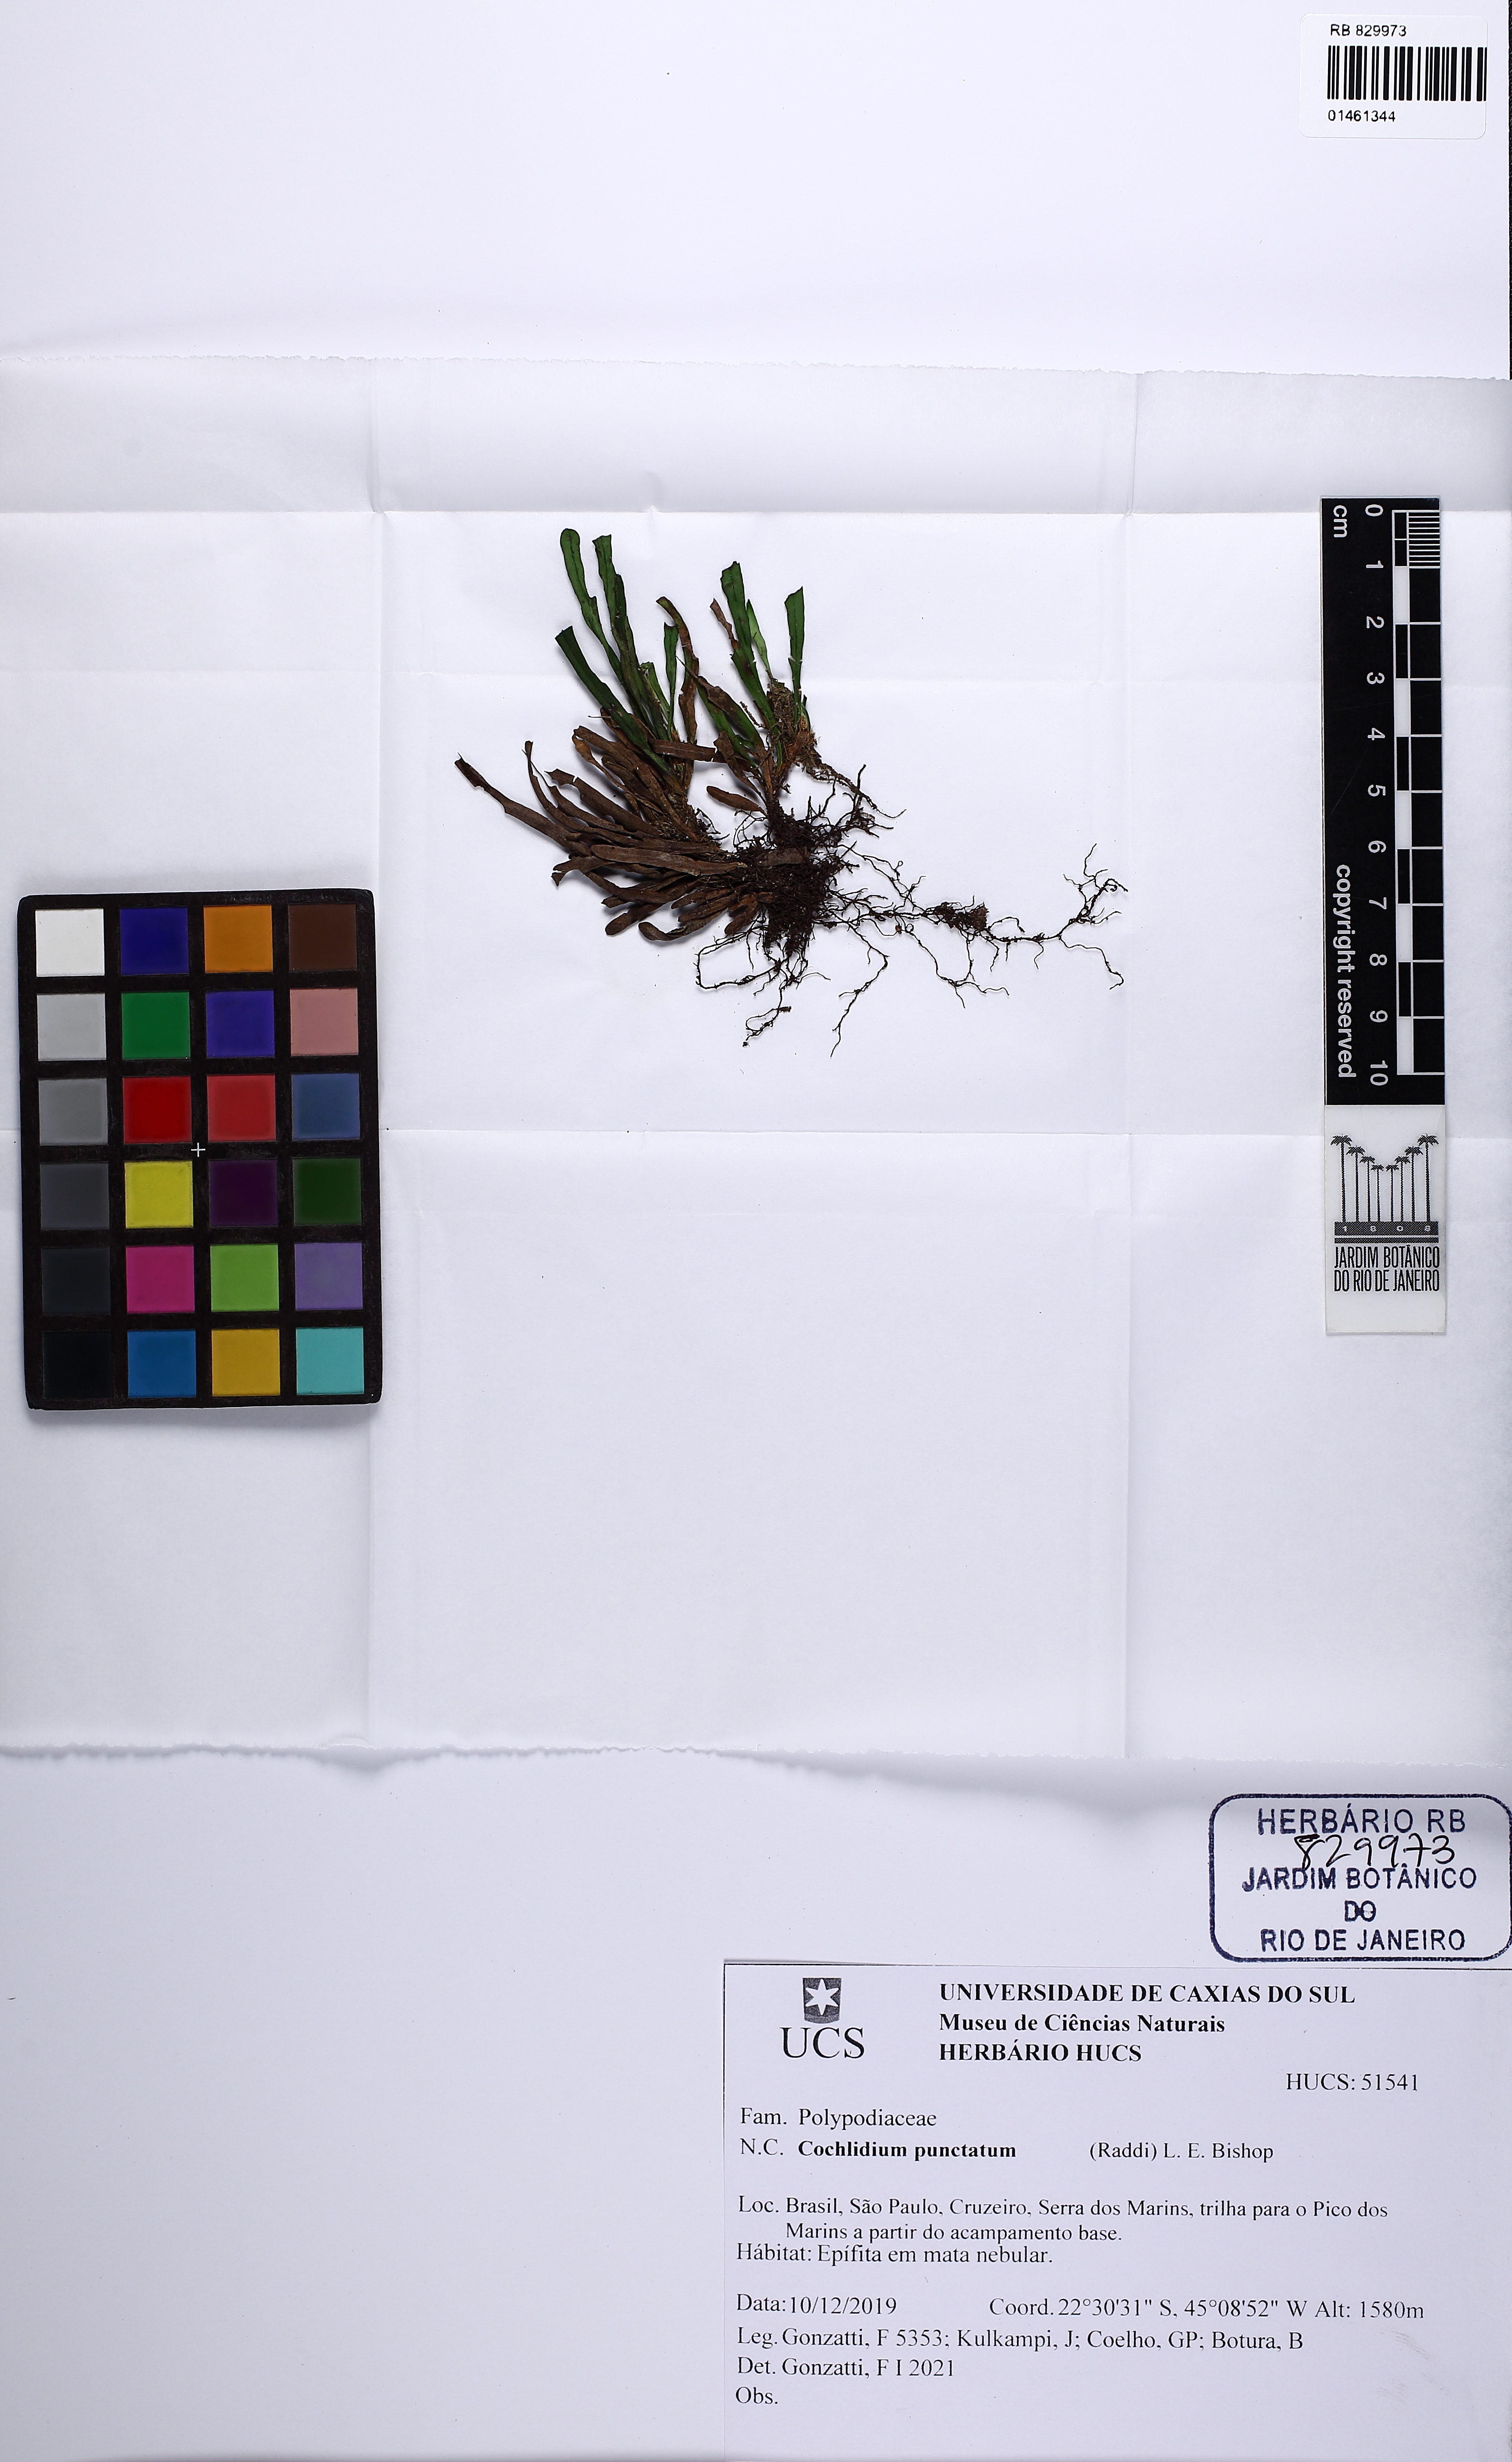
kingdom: Plantae
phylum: Tracheophyta
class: Polypodiopsida
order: Polypodiales
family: Polypodiaceae
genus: Cochlidium
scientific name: Cochlidium punctatum
